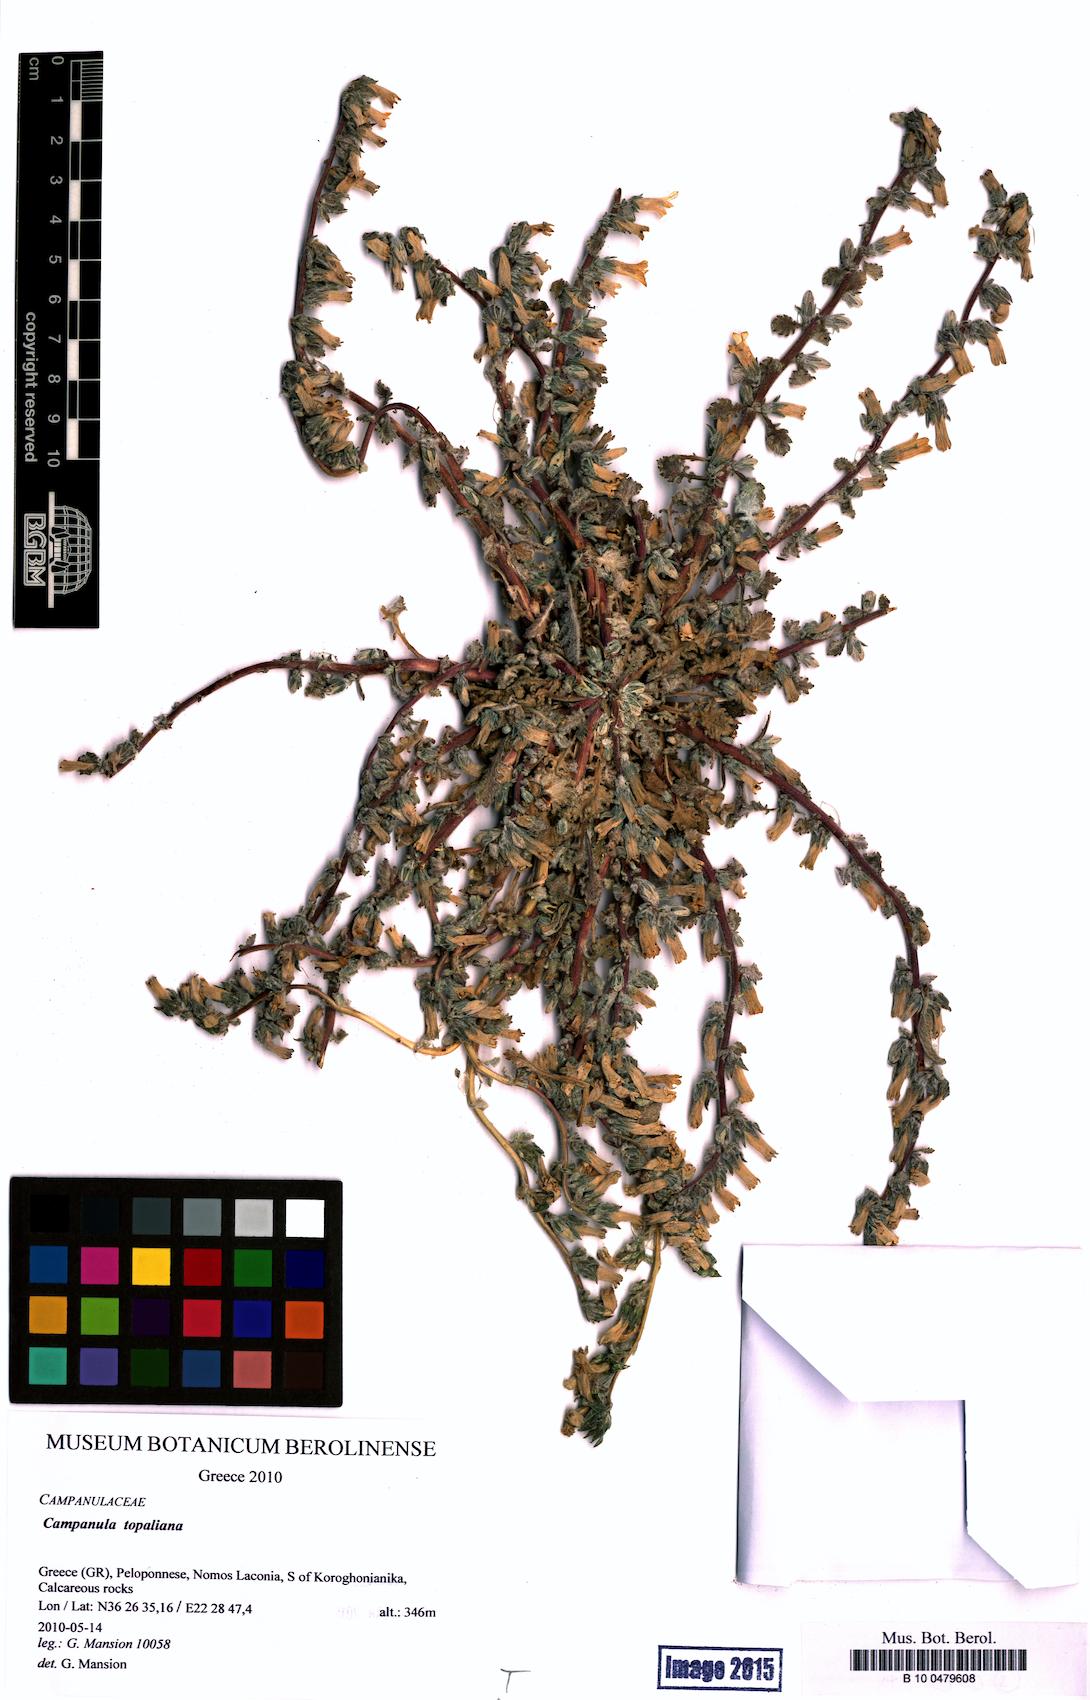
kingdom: Plantae
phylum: Tracheophyta
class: Magnoliopsida
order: Asterales
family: Campanulaceae
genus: Campanula
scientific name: Campanula topaliana
